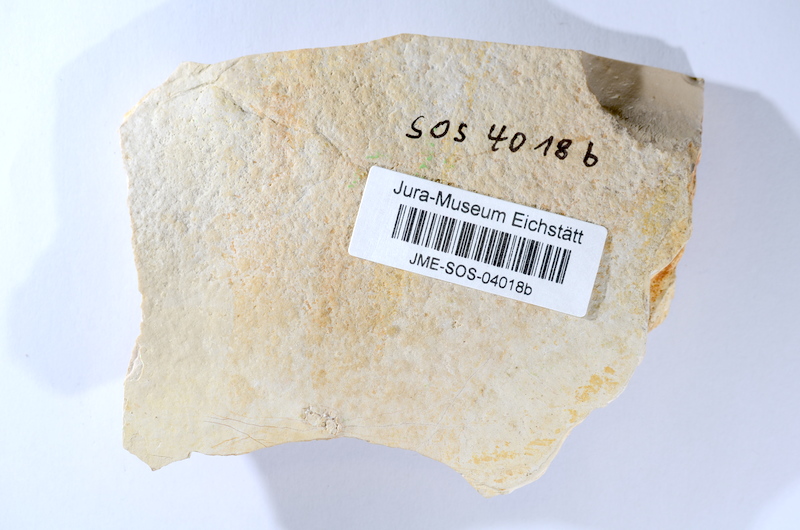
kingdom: Animalia
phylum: Chordata
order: Amiiformes
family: Caturidae
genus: Caturus
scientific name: Caturus
